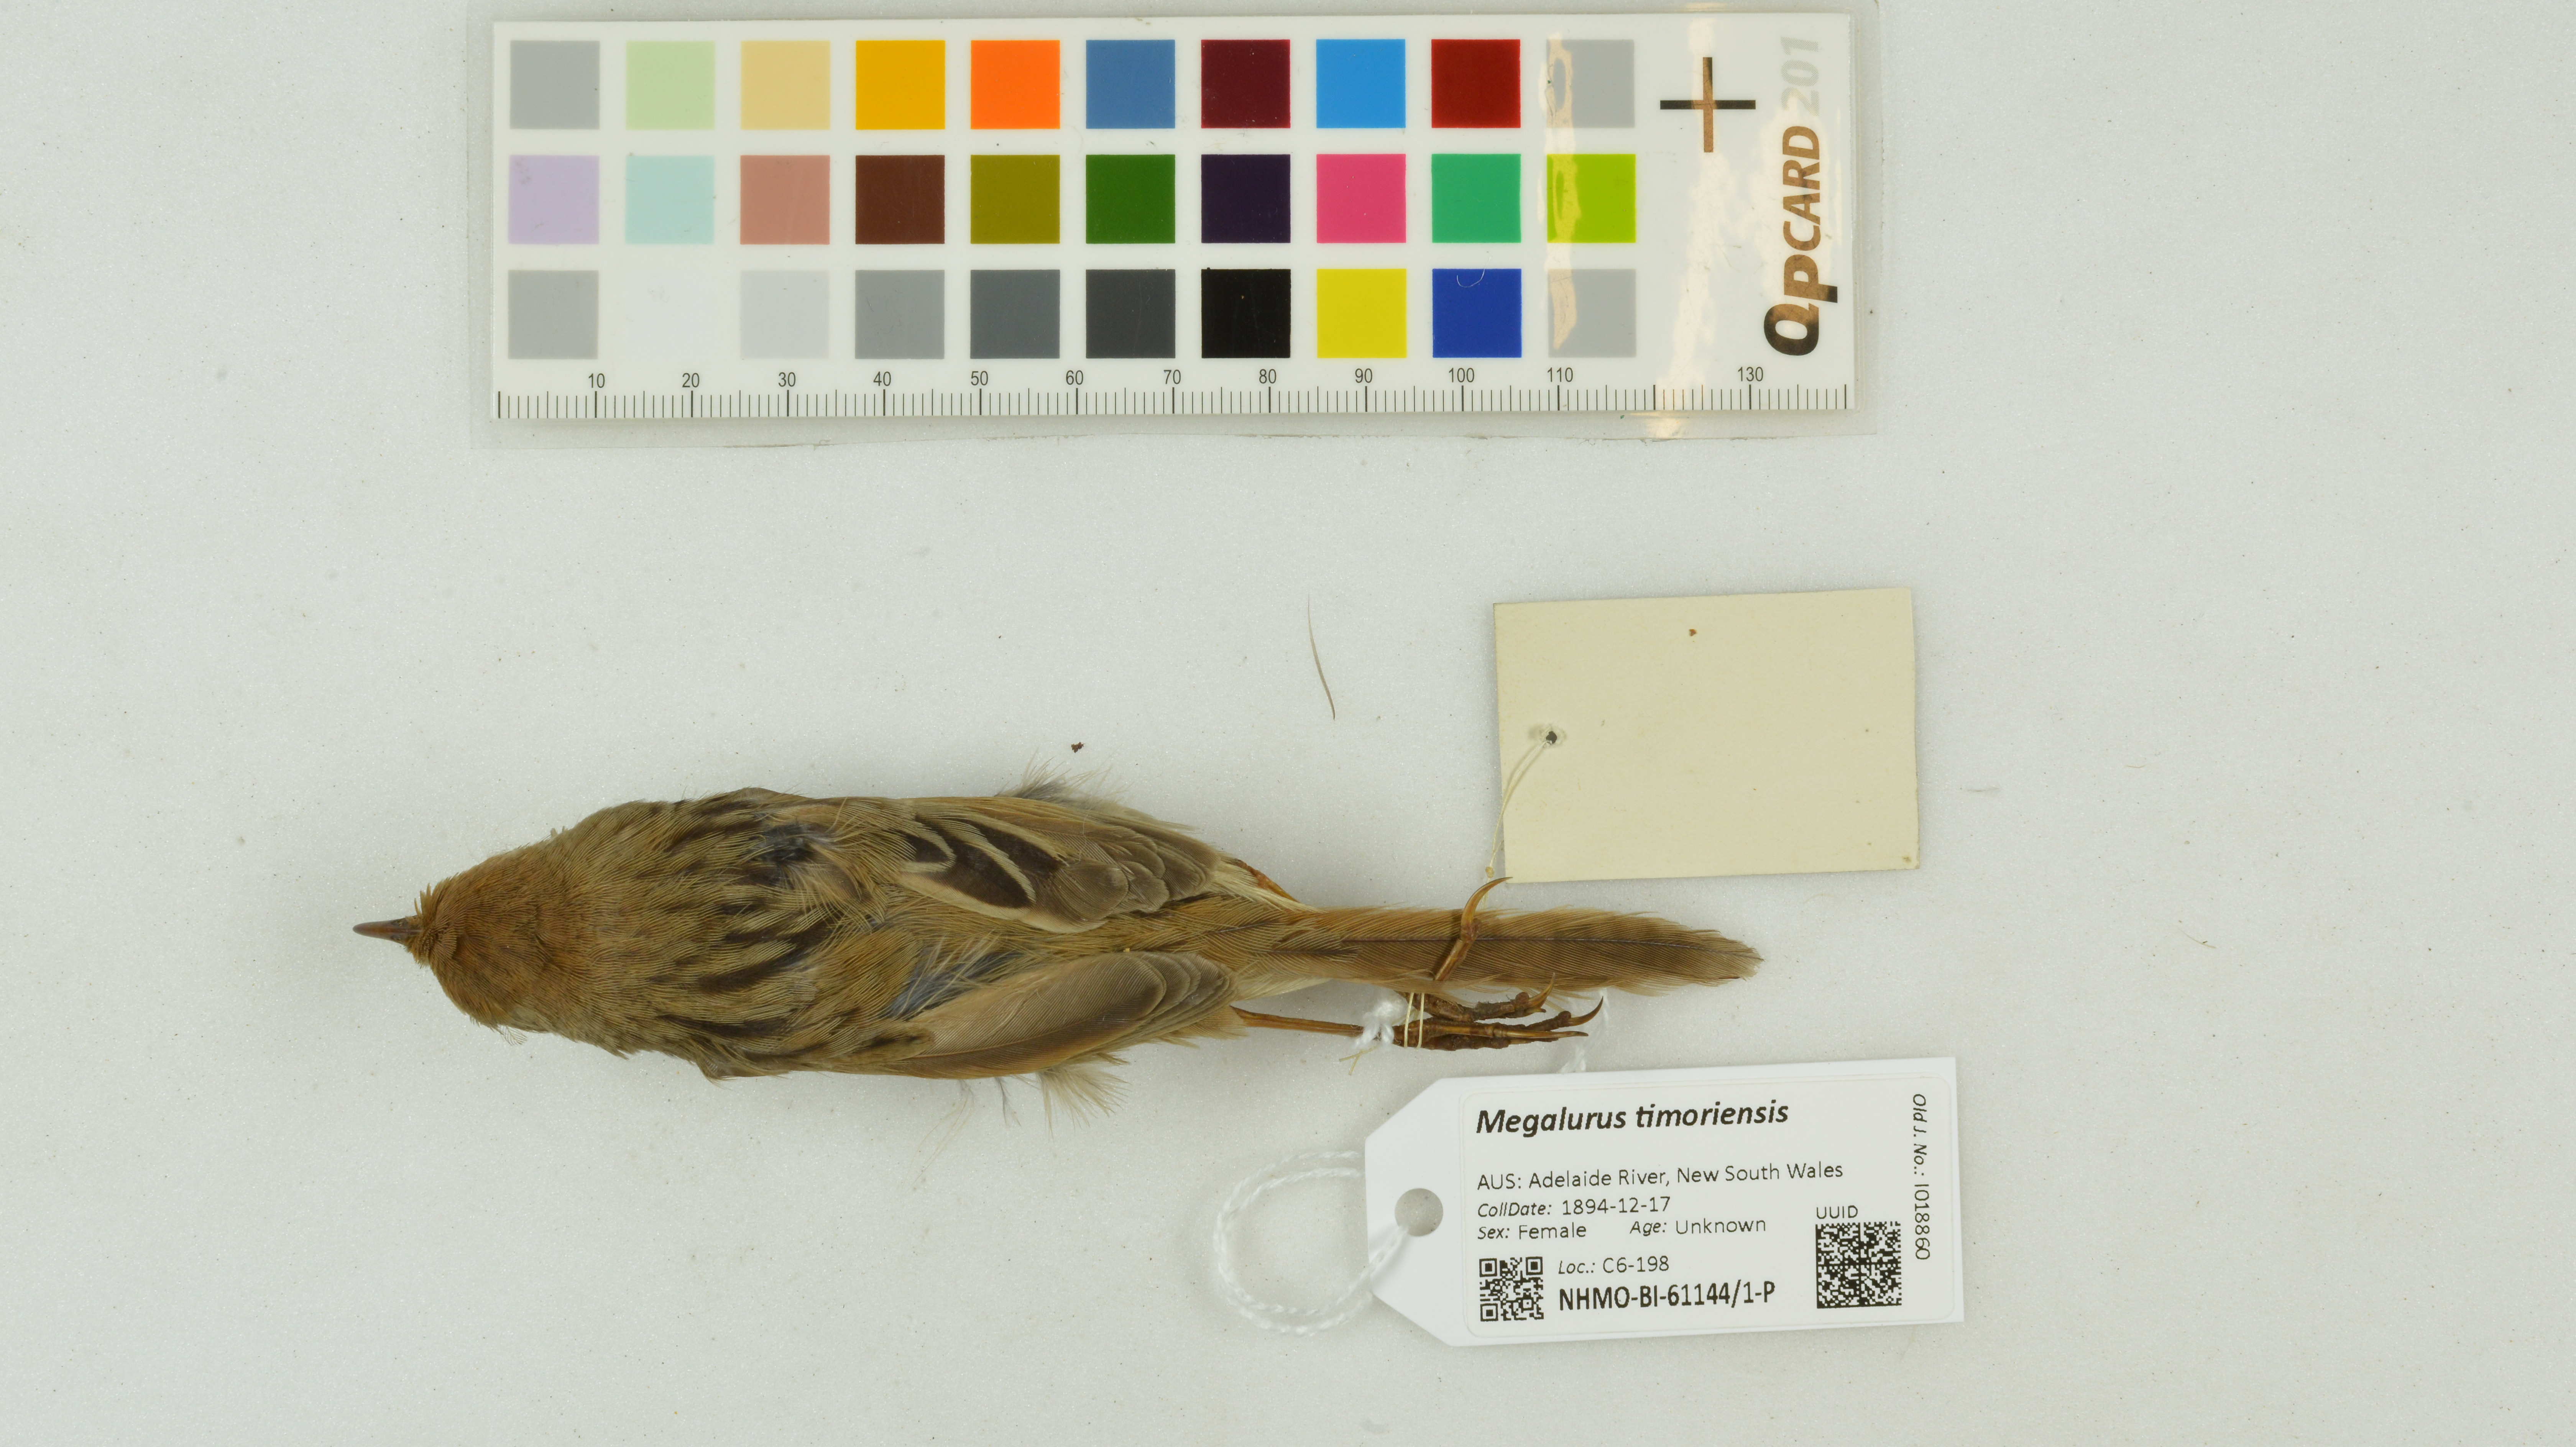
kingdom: Animalia
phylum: Chordata
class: Aves
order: Passeriformes
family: Locustellidae
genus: Megalurus
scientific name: Megalurus timoriensis
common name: Tawny grassbird
